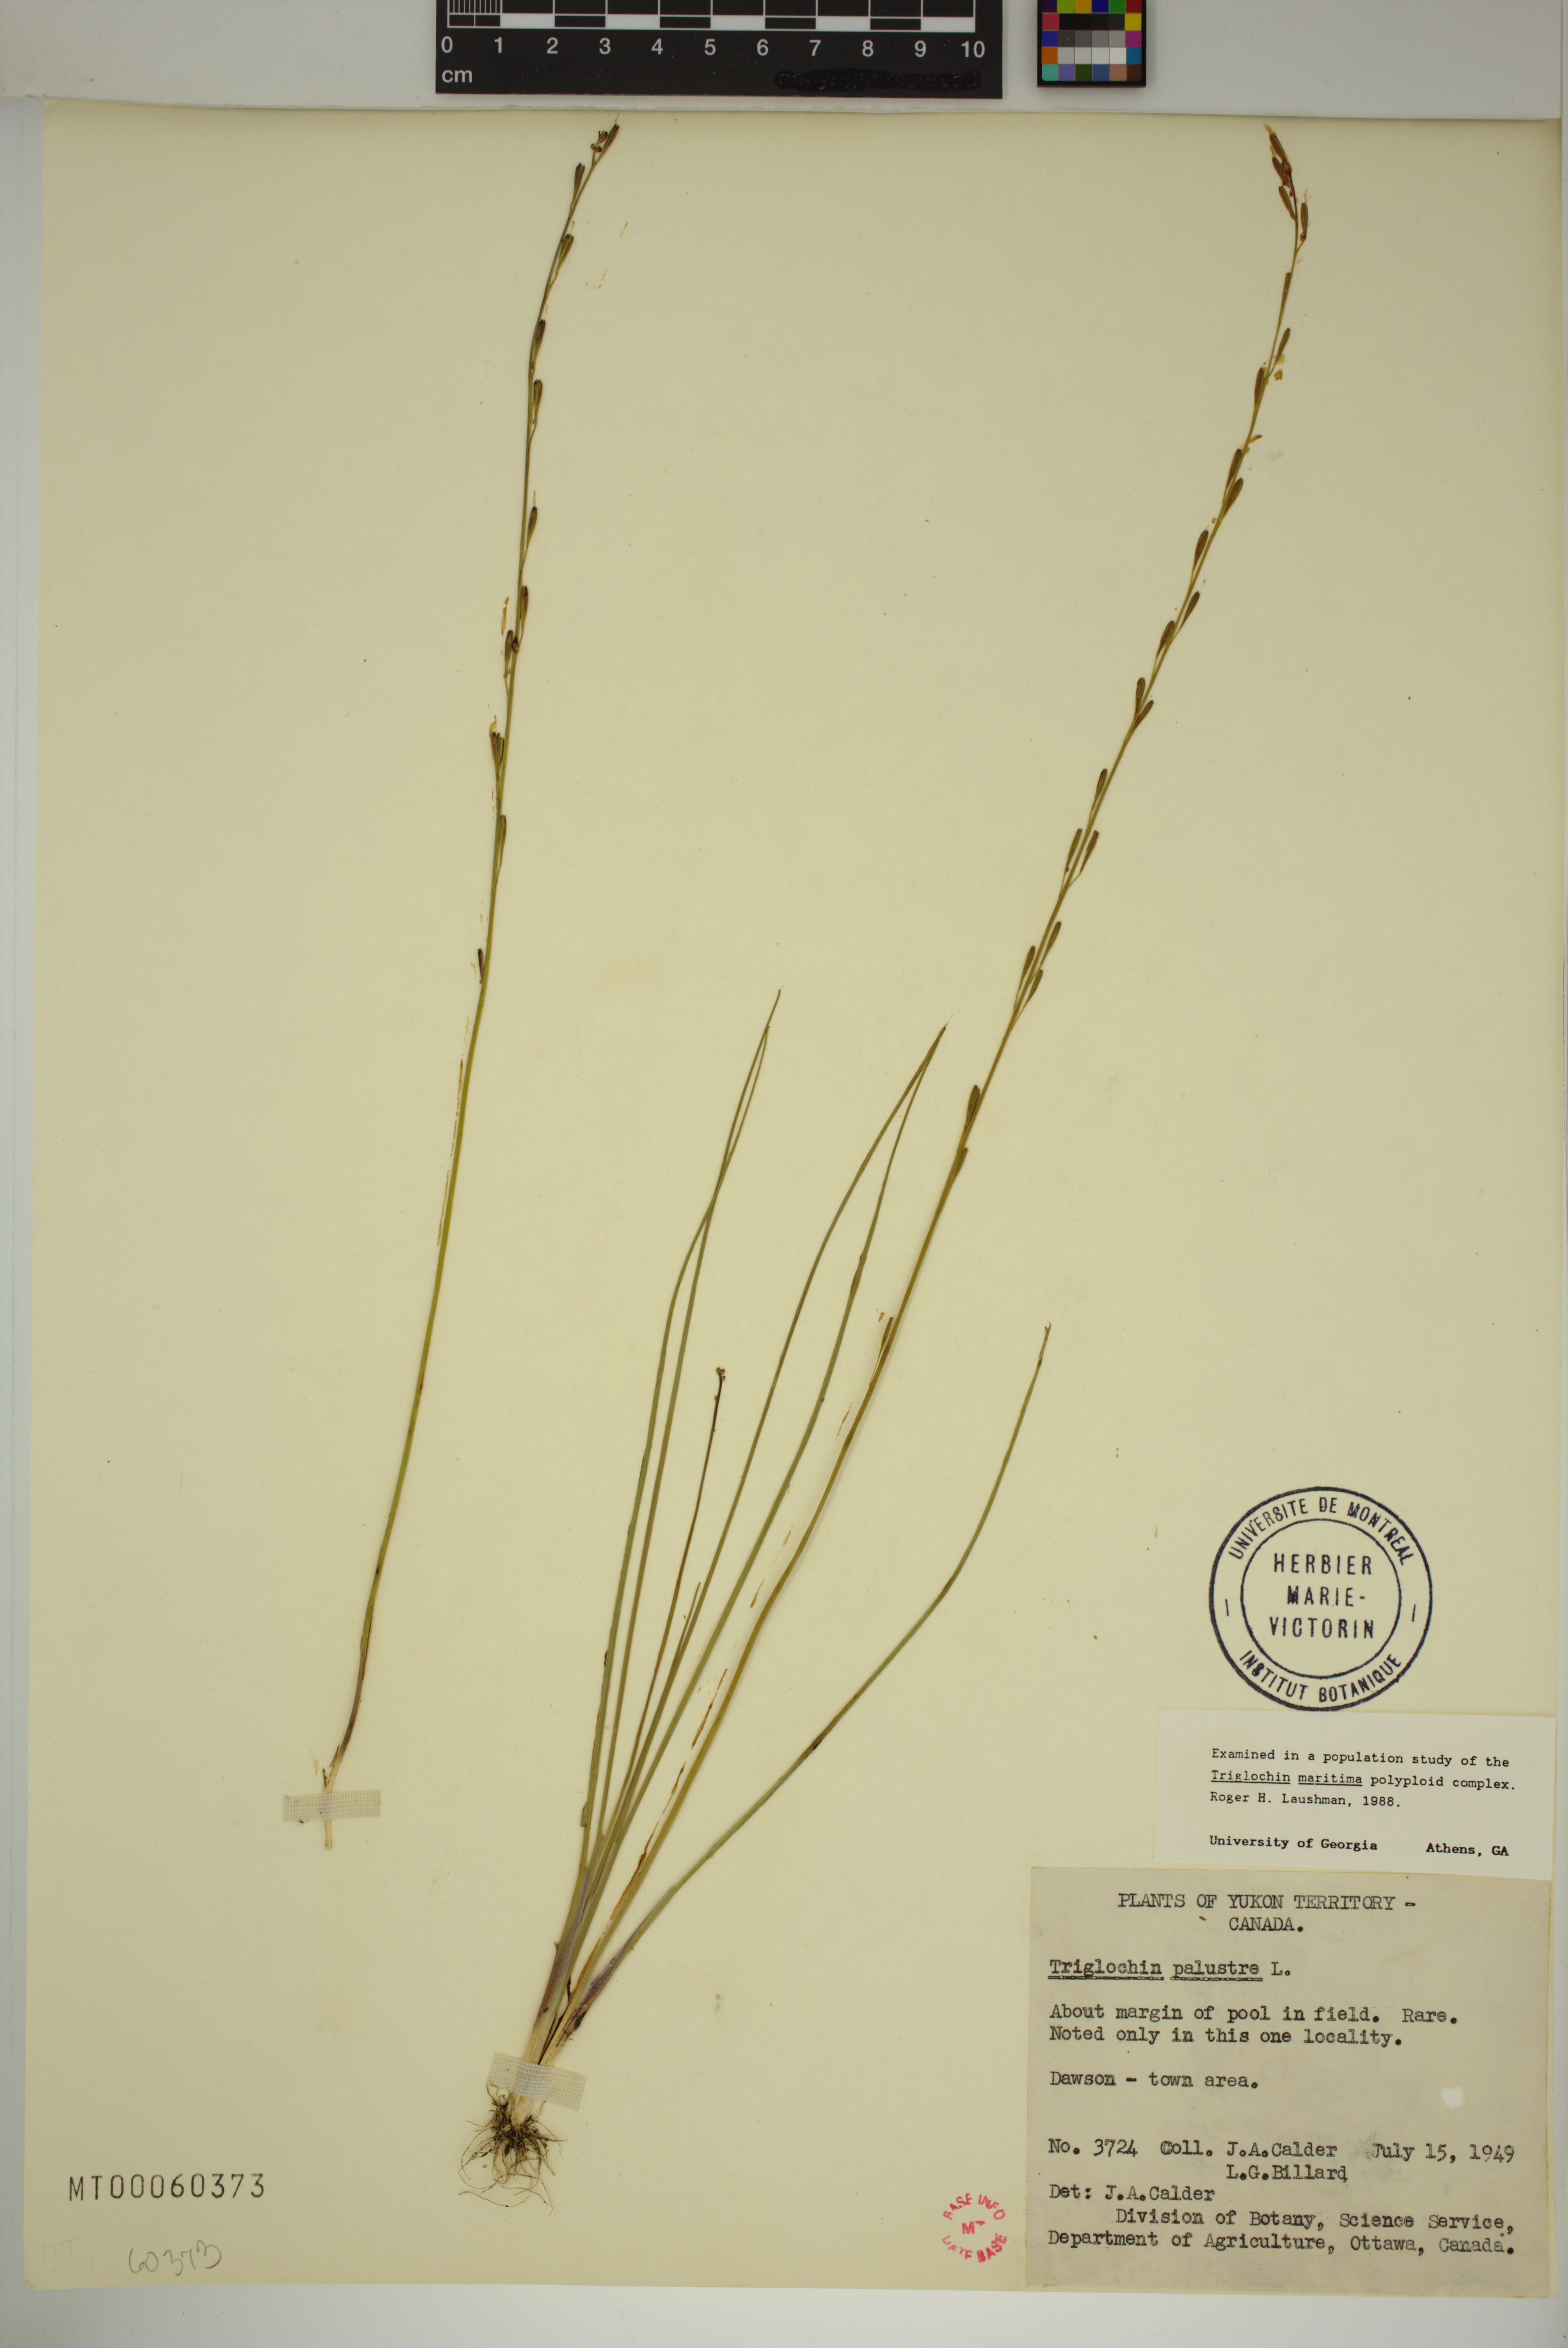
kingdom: Plantae
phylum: Tracheophyta
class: Liliopsida
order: Alismatales
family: Juncaginaceae
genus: Triglochin
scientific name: Triglochin palustris
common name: Marsh arrowgrass
